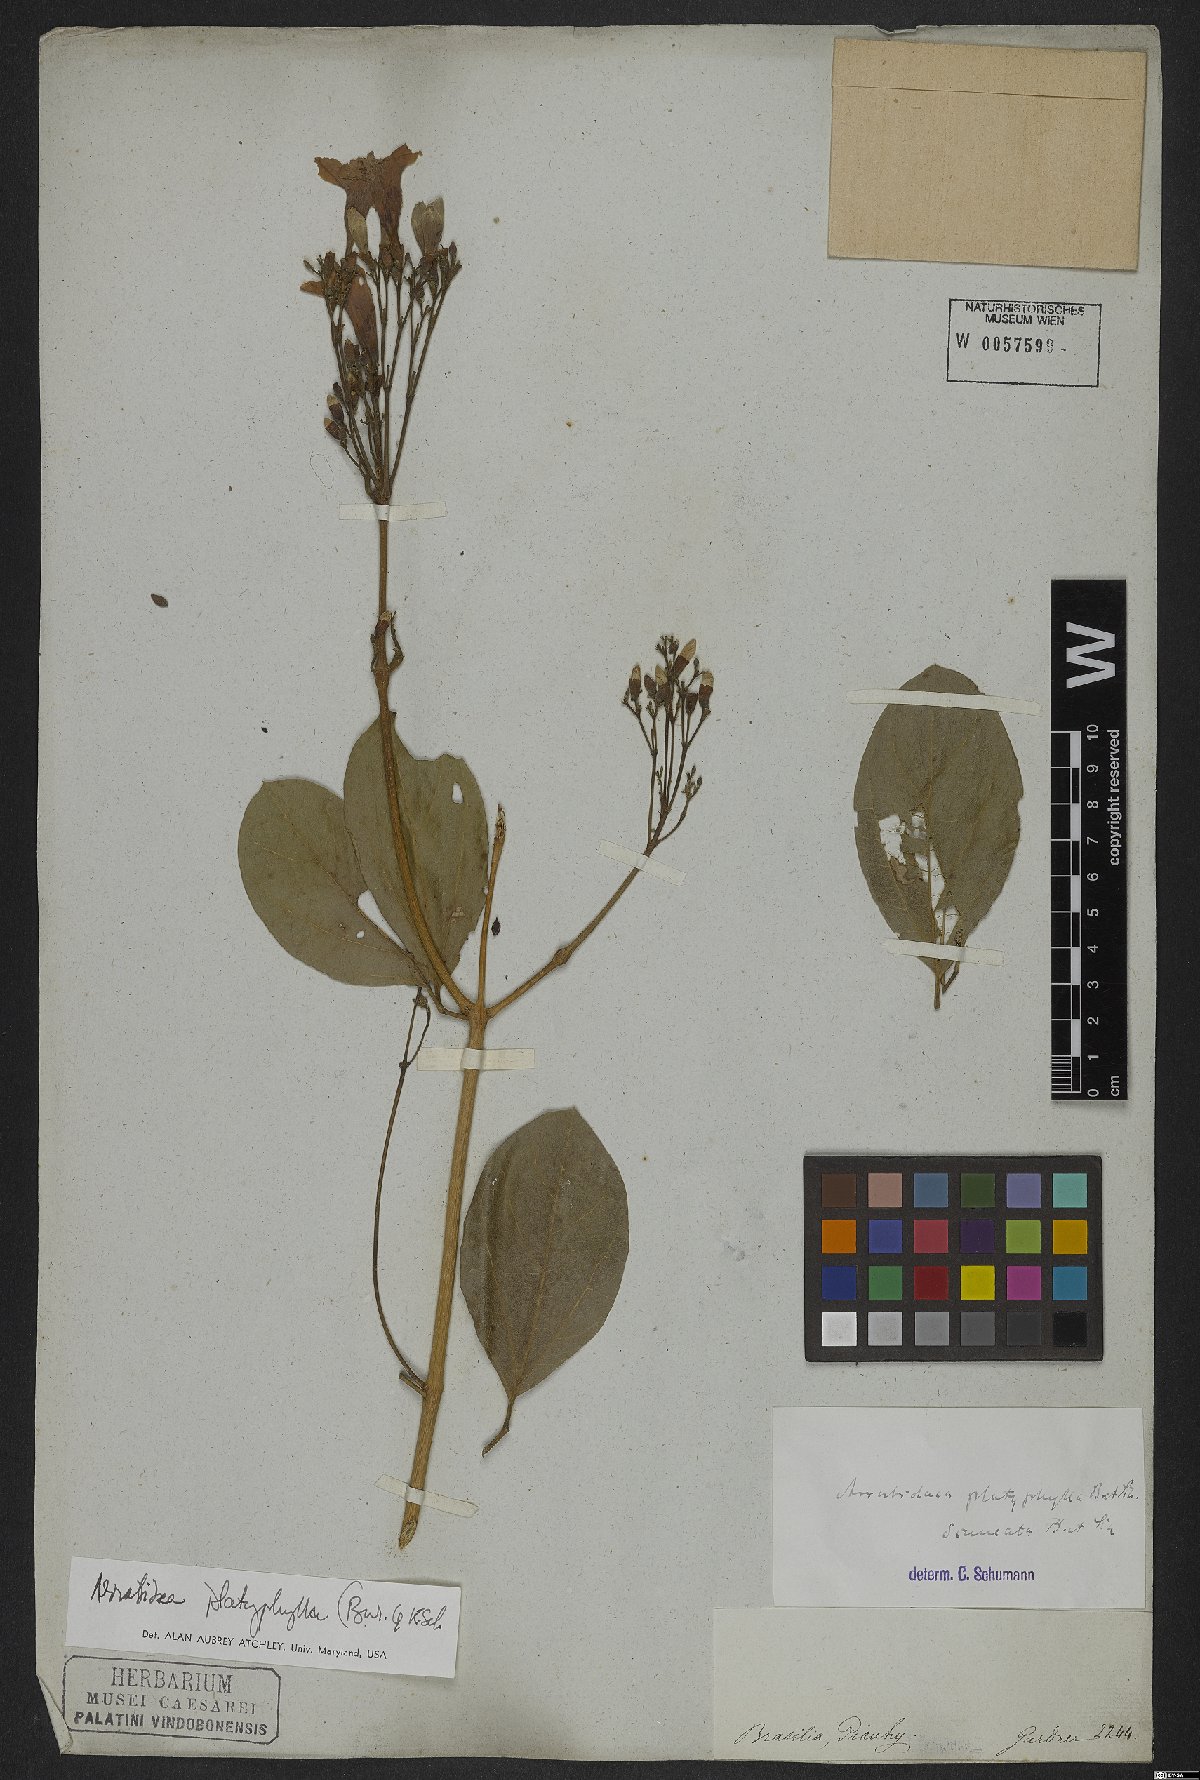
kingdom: Plantae
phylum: Tracheophyta
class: Magnoliopsida
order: Lamiales
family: Bignoniaceae
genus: Xylophragma
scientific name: Xylophragma platyphyllum
